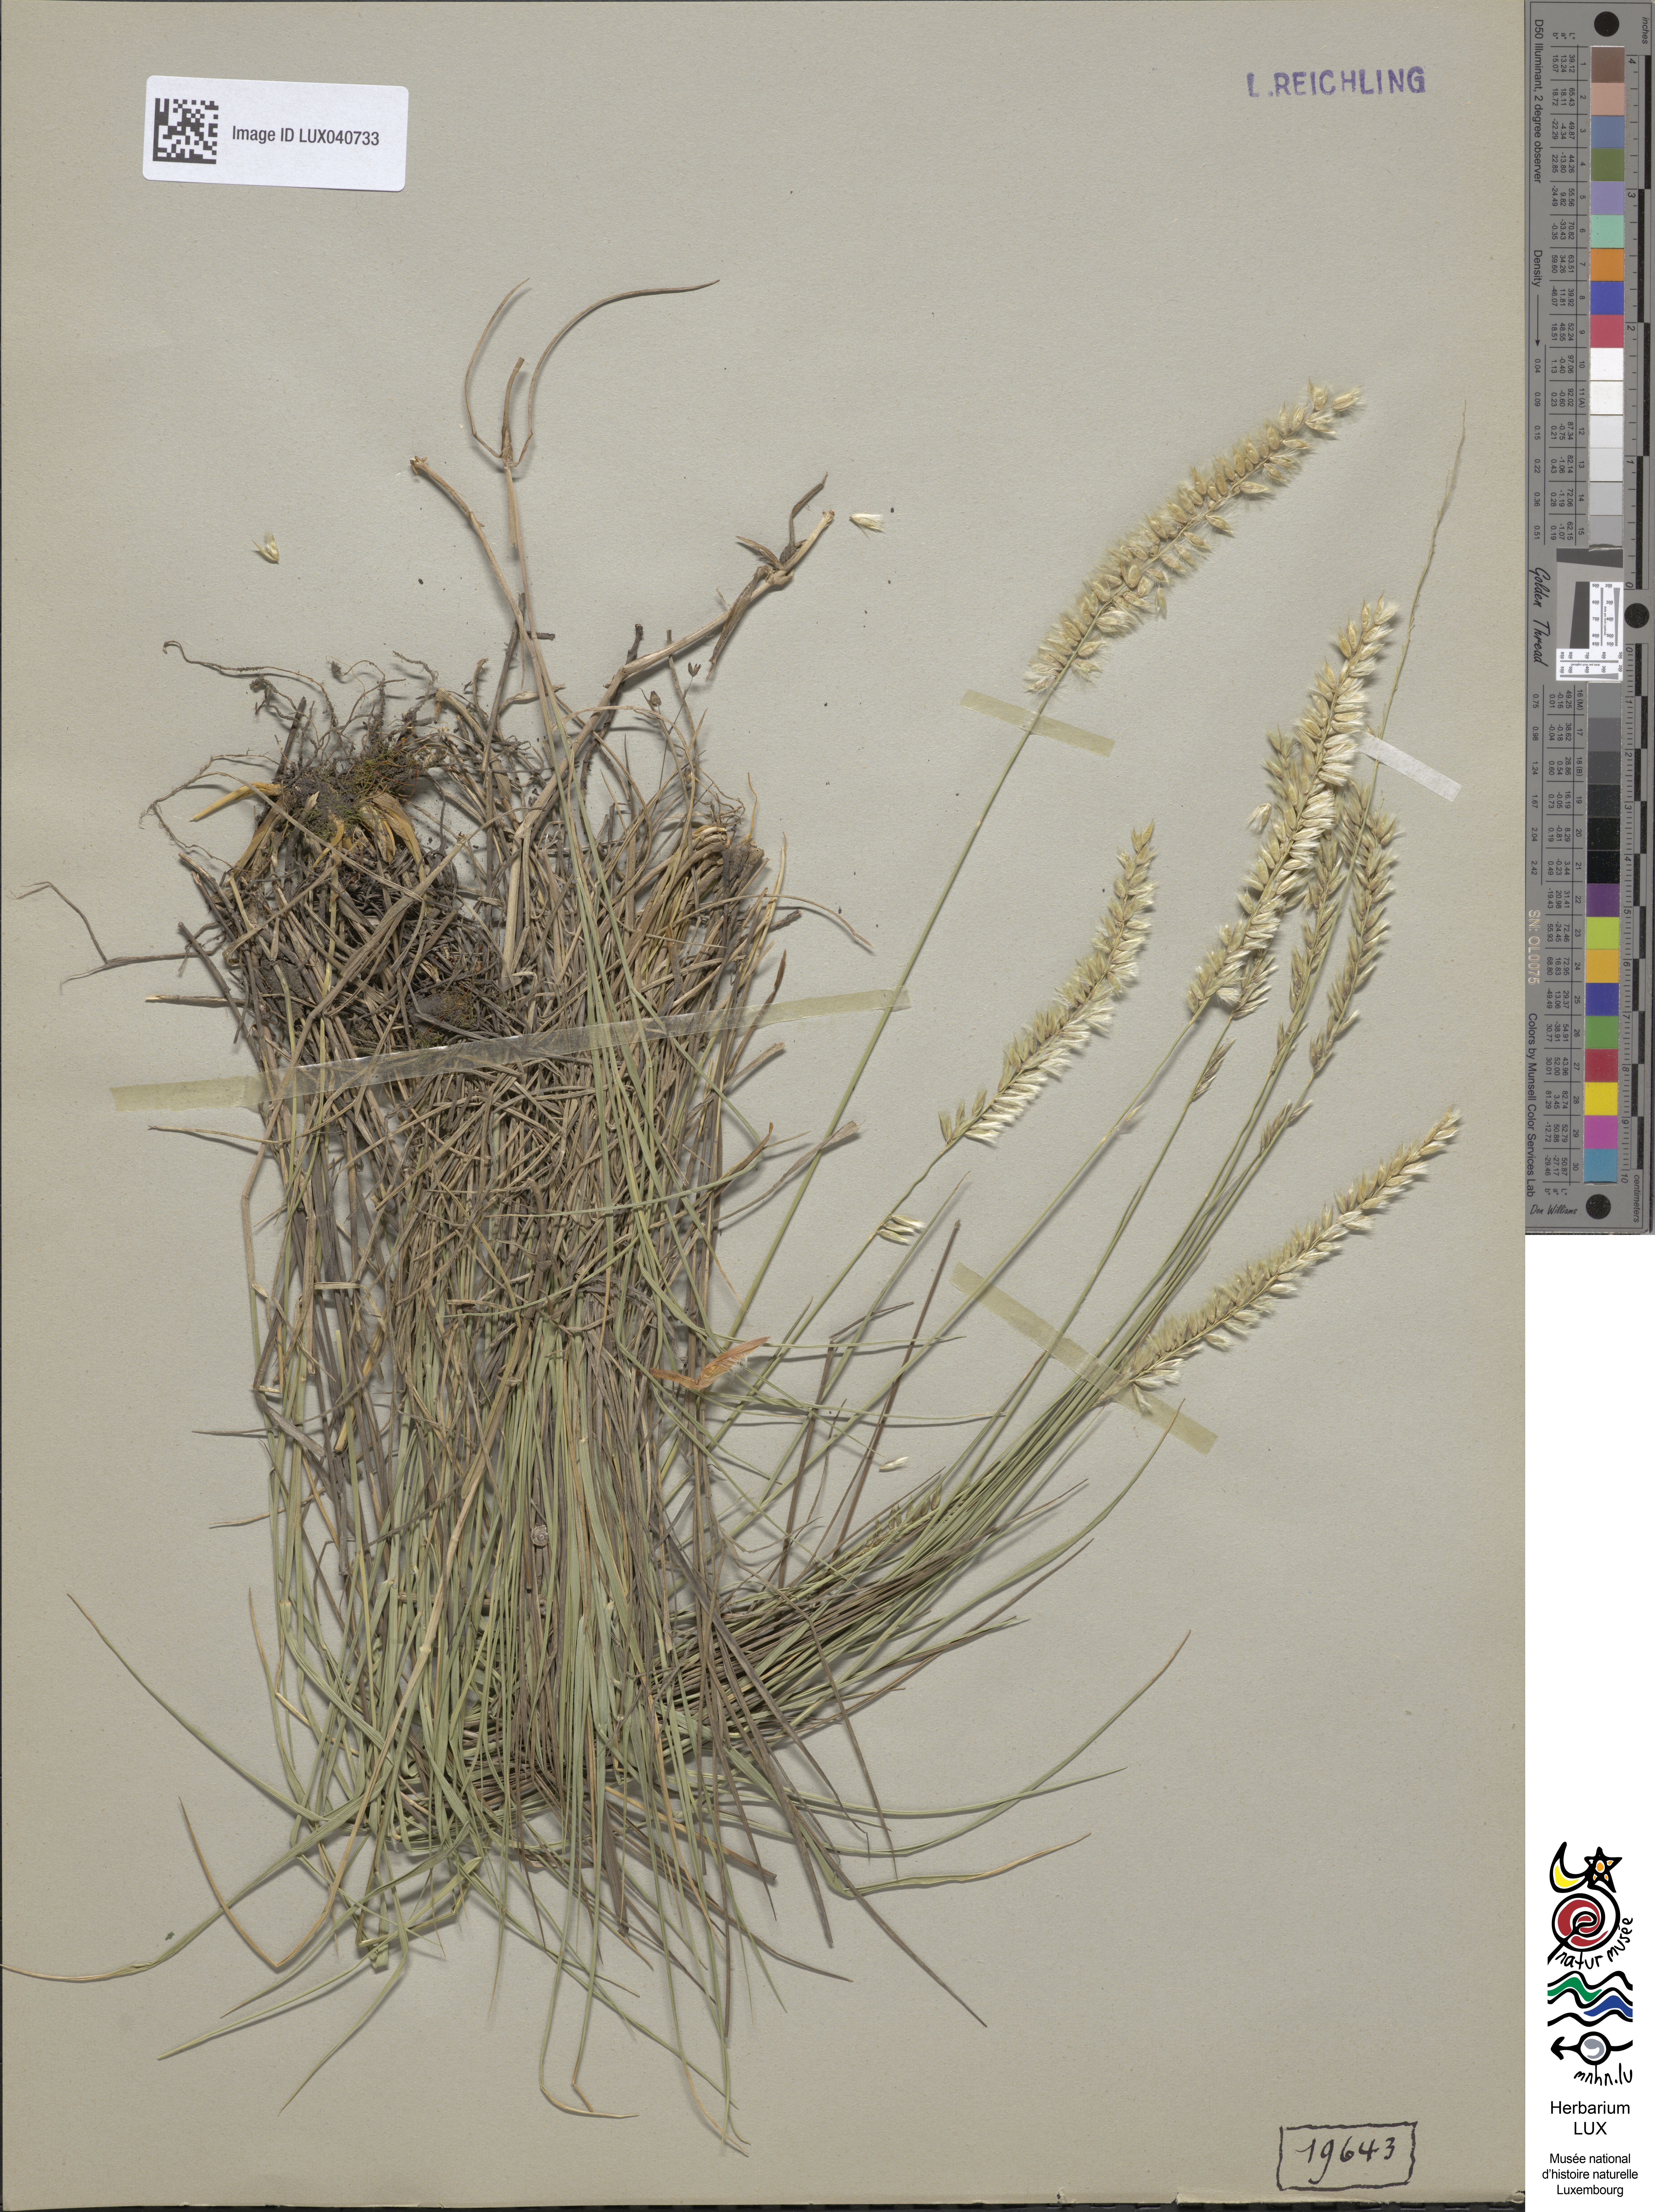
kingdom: Plantae
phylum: Tracheophyta
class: Liliopsida
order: Poales
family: Poaceae
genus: Melica
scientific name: Melica ciliata
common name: Hairy melicgrass
